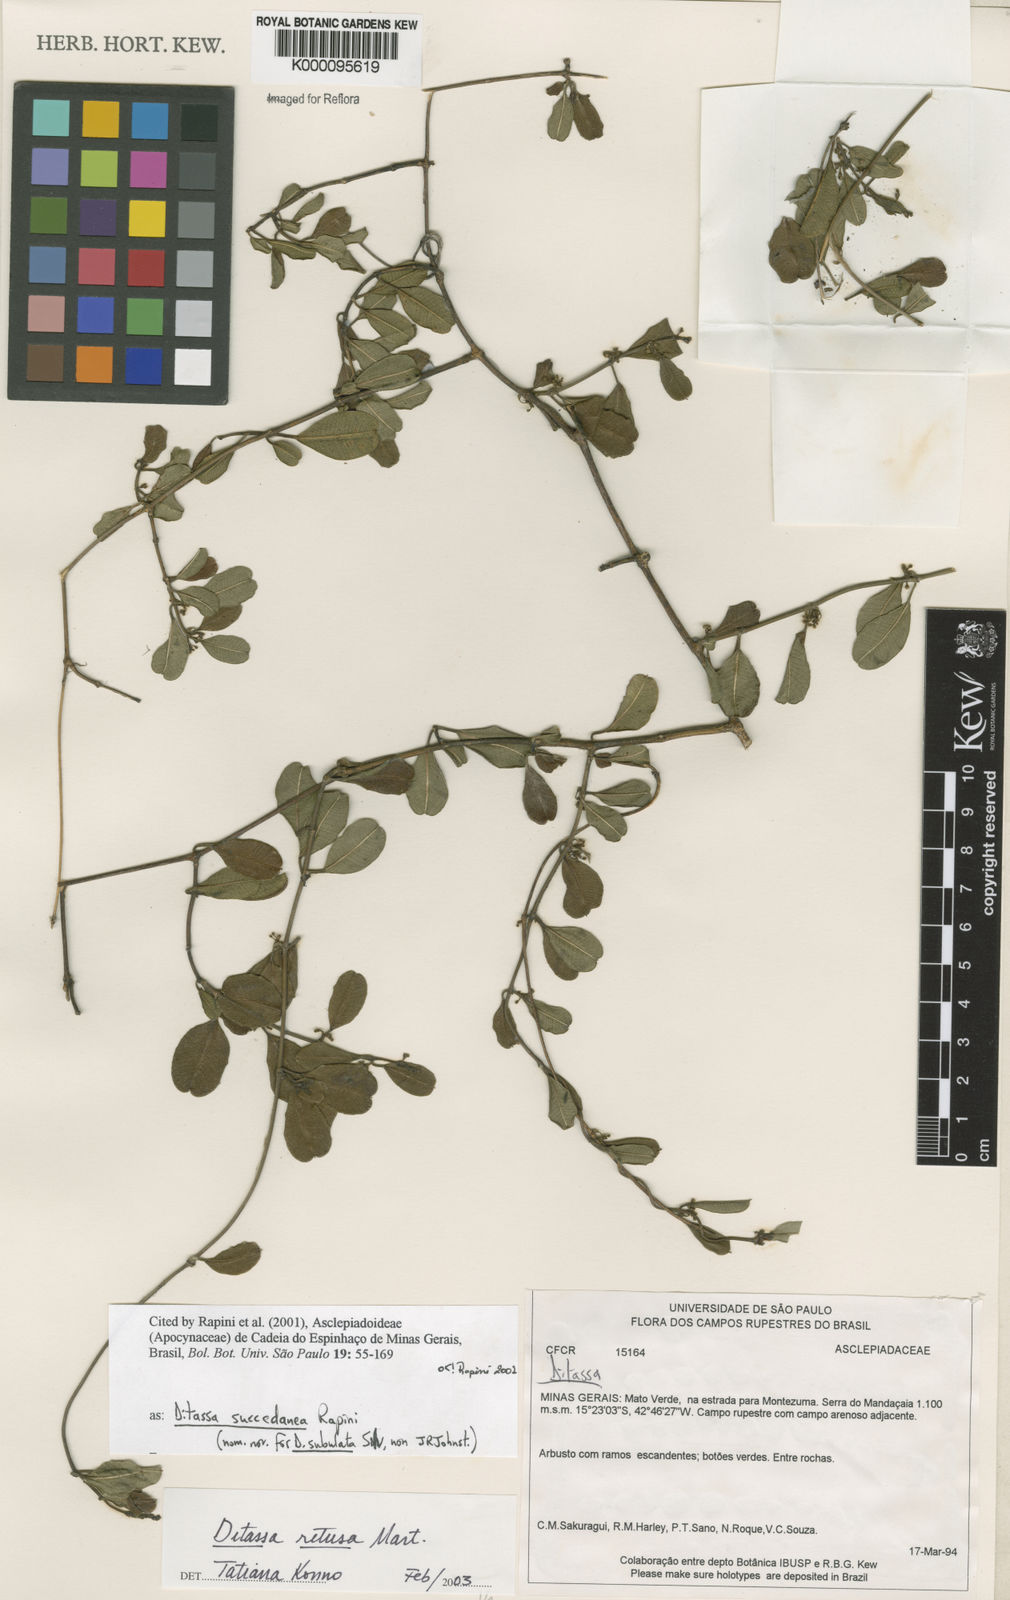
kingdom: Plantae
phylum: Tracheophyta
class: Magnoliopsida
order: Gentianales
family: Apocynaceae
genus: Ditassa
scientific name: Ditassa retusa
